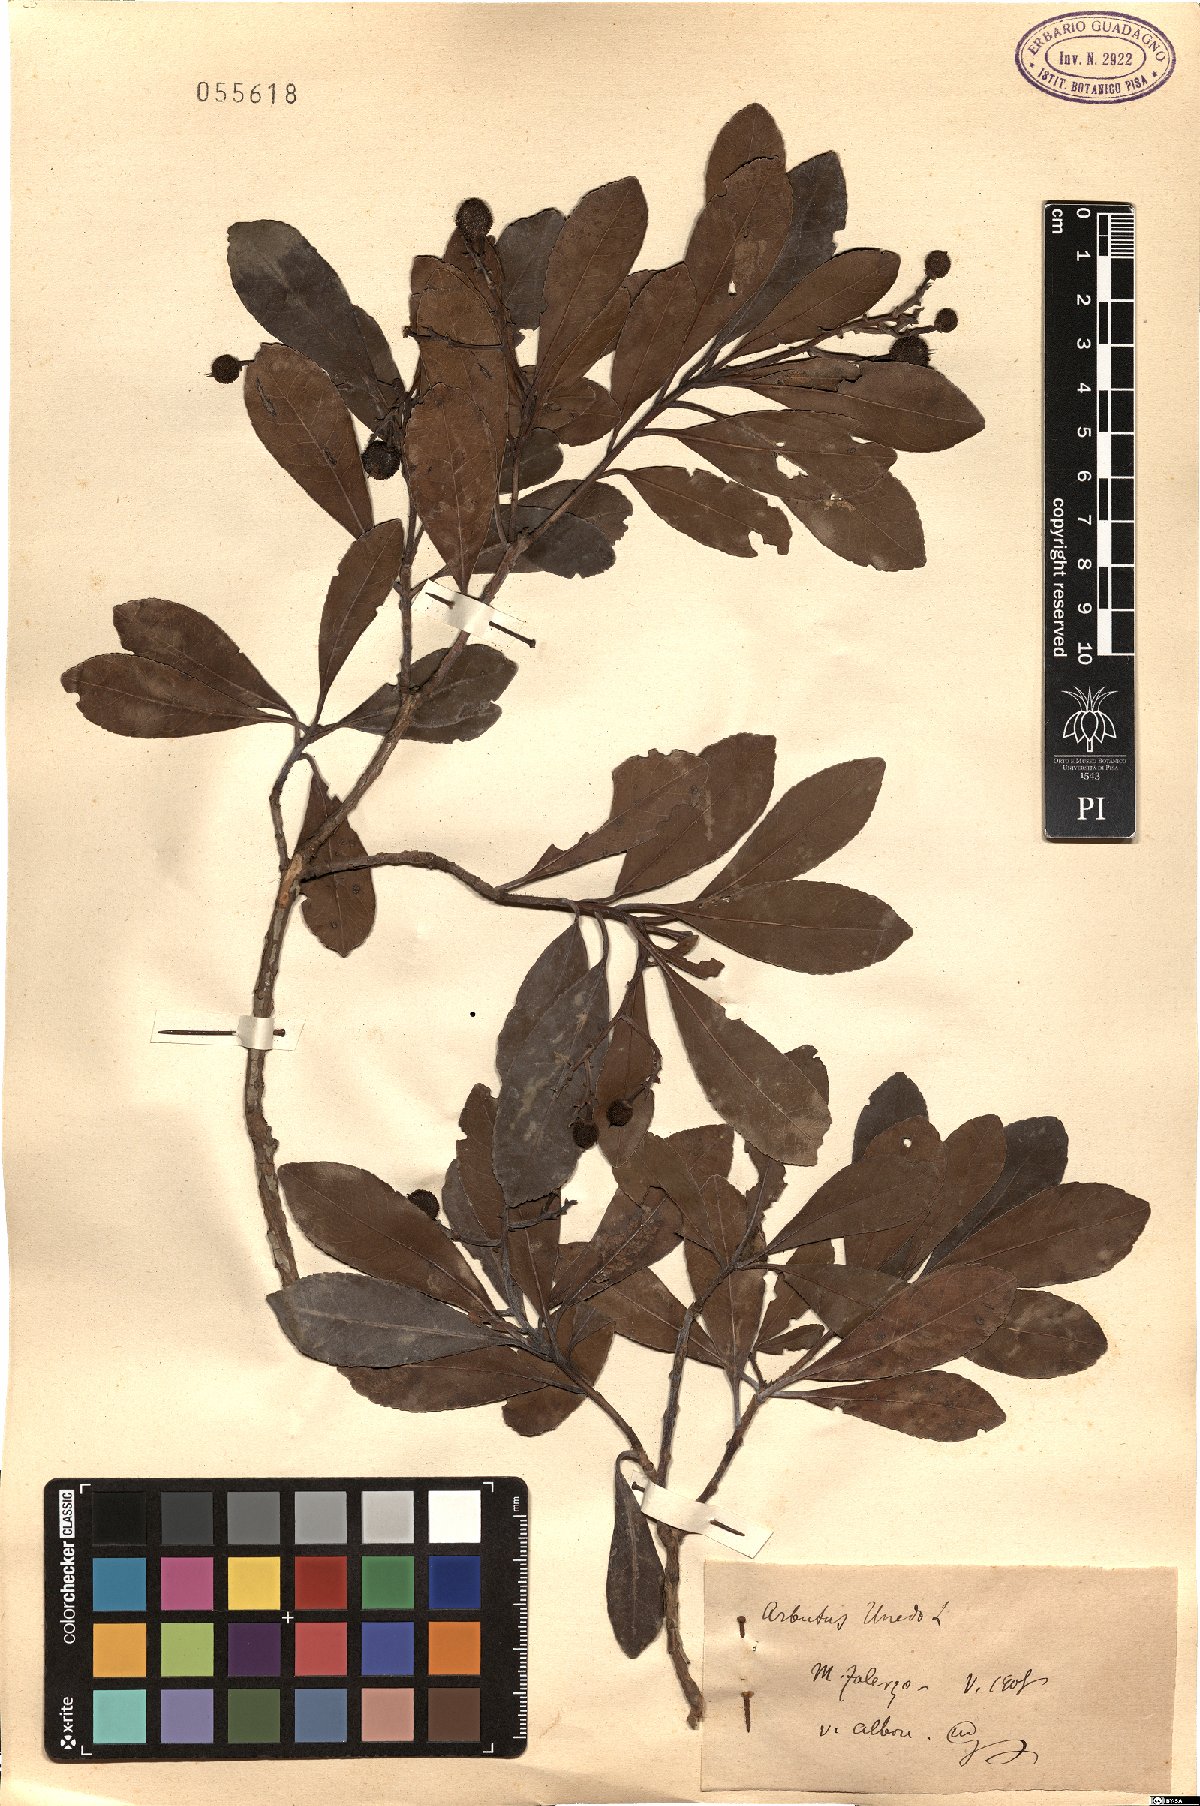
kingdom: Plantae
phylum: Tracheophyta
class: Magnoliopsida
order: Ericales
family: Ericaceae
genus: Arbutus
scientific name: Arbutus unedo
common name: Strawberry-tree
